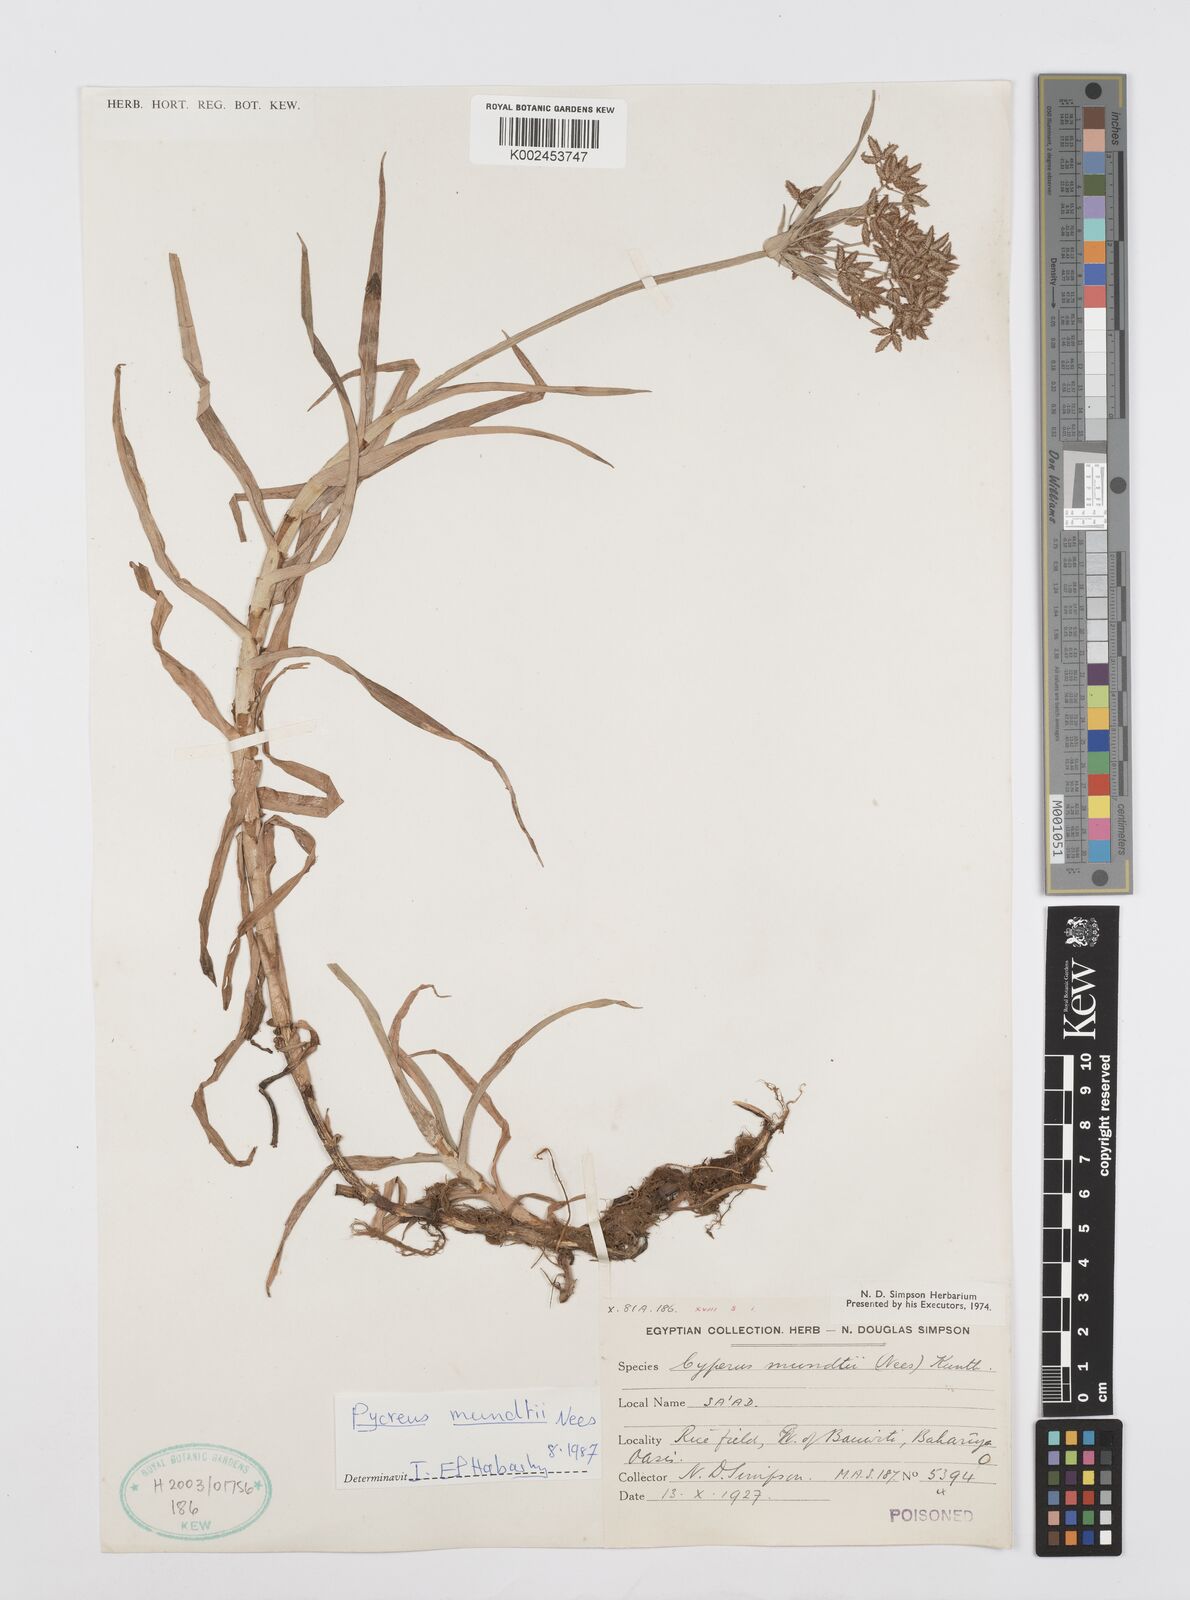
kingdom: Plantae
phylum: Tracheophyta
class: Liliopsida
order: Poales
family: Cyperaceae
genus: Cyperus
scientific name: Cyperus mundii
